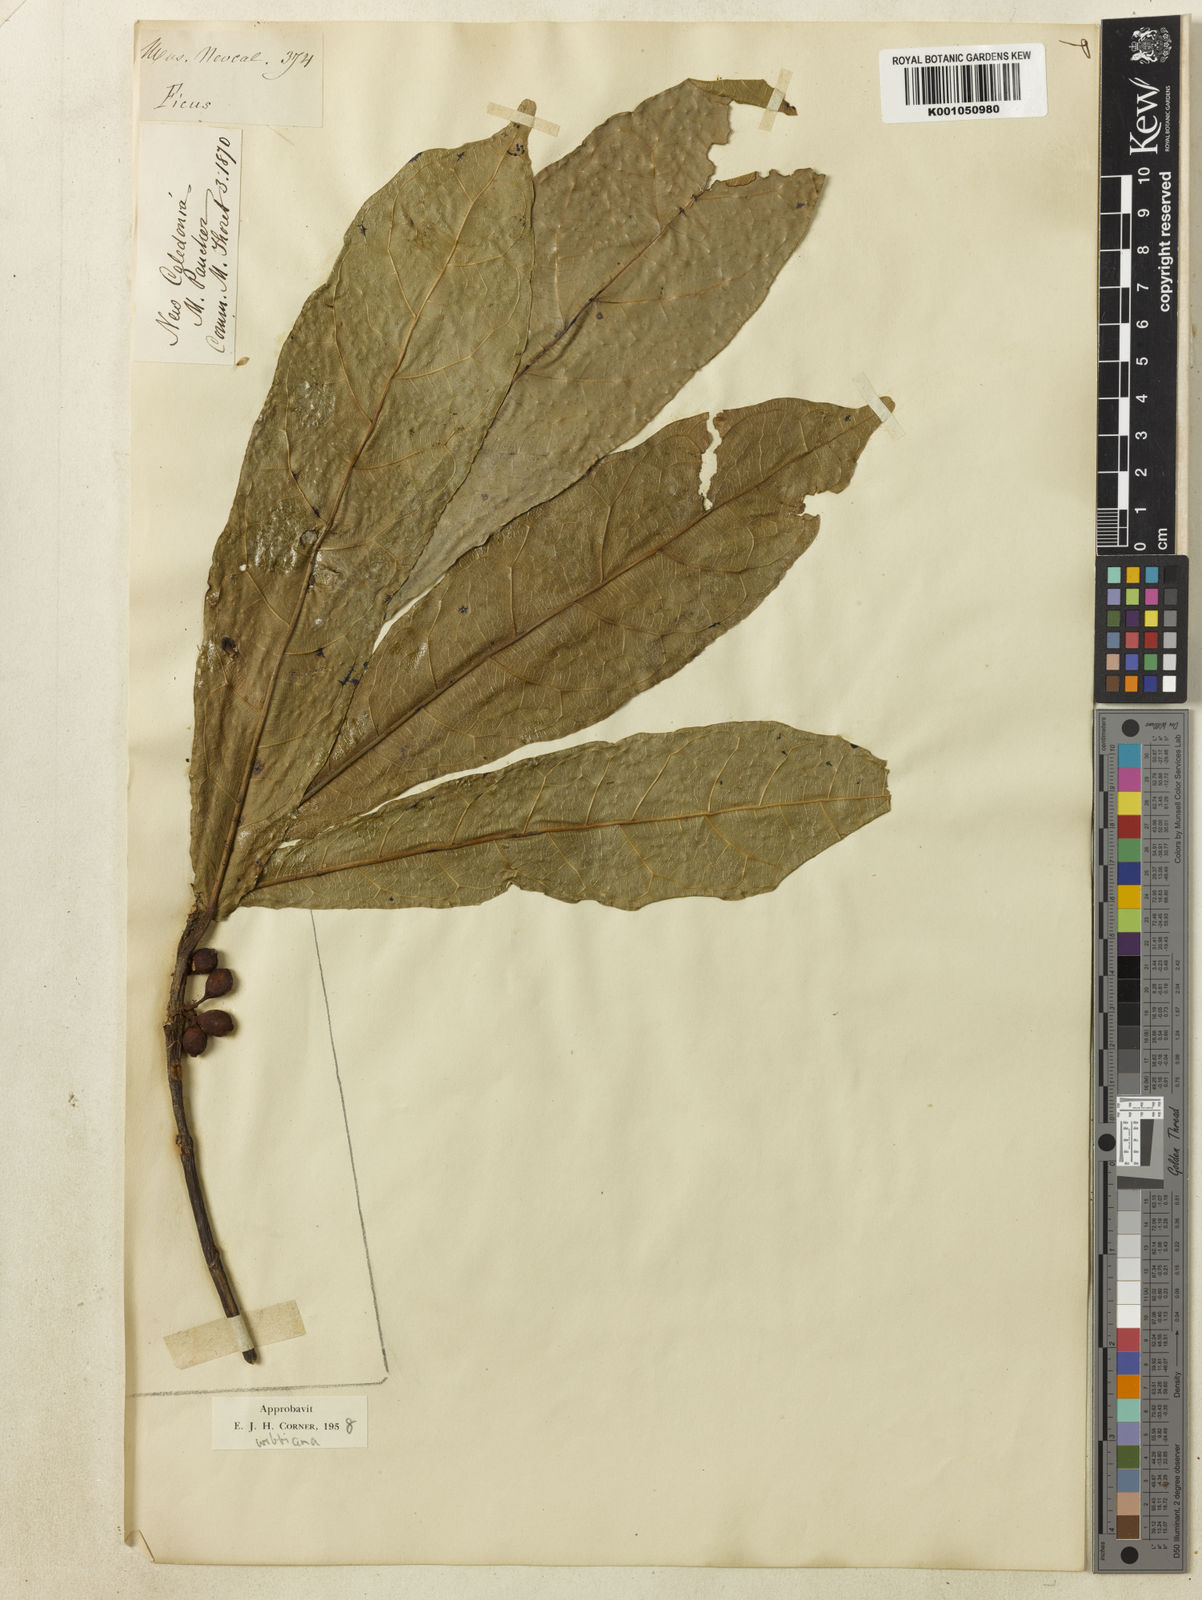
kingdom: Plantae
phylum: Tracheophyta
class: Magnoliopsida
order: Rosales
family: Moraceae
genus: Ficus
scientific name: Ficus webbiana
